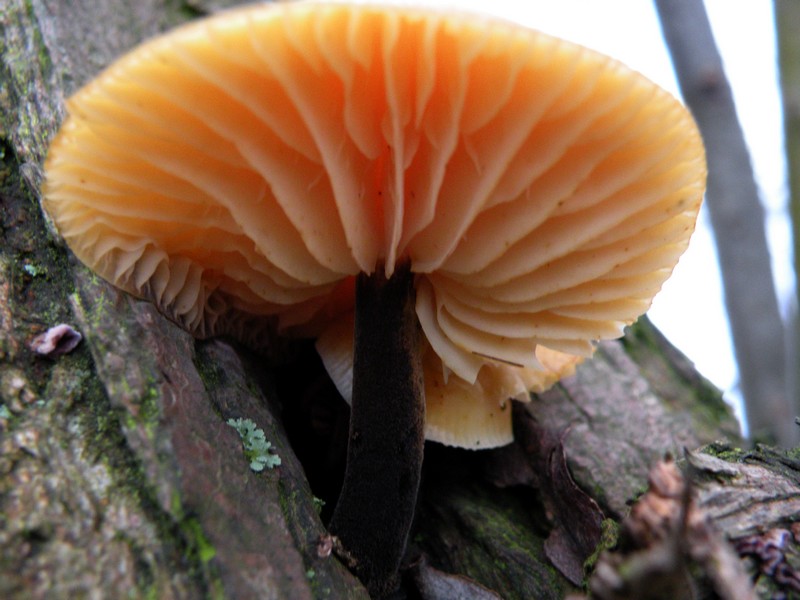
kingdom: Fungi
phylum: Basidiomycota
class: Agaricomycetes
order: Agaricales
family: Physalacriaceae
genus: Flammulina
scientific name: Flammulina elastica
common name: pile-fløjlsfod
